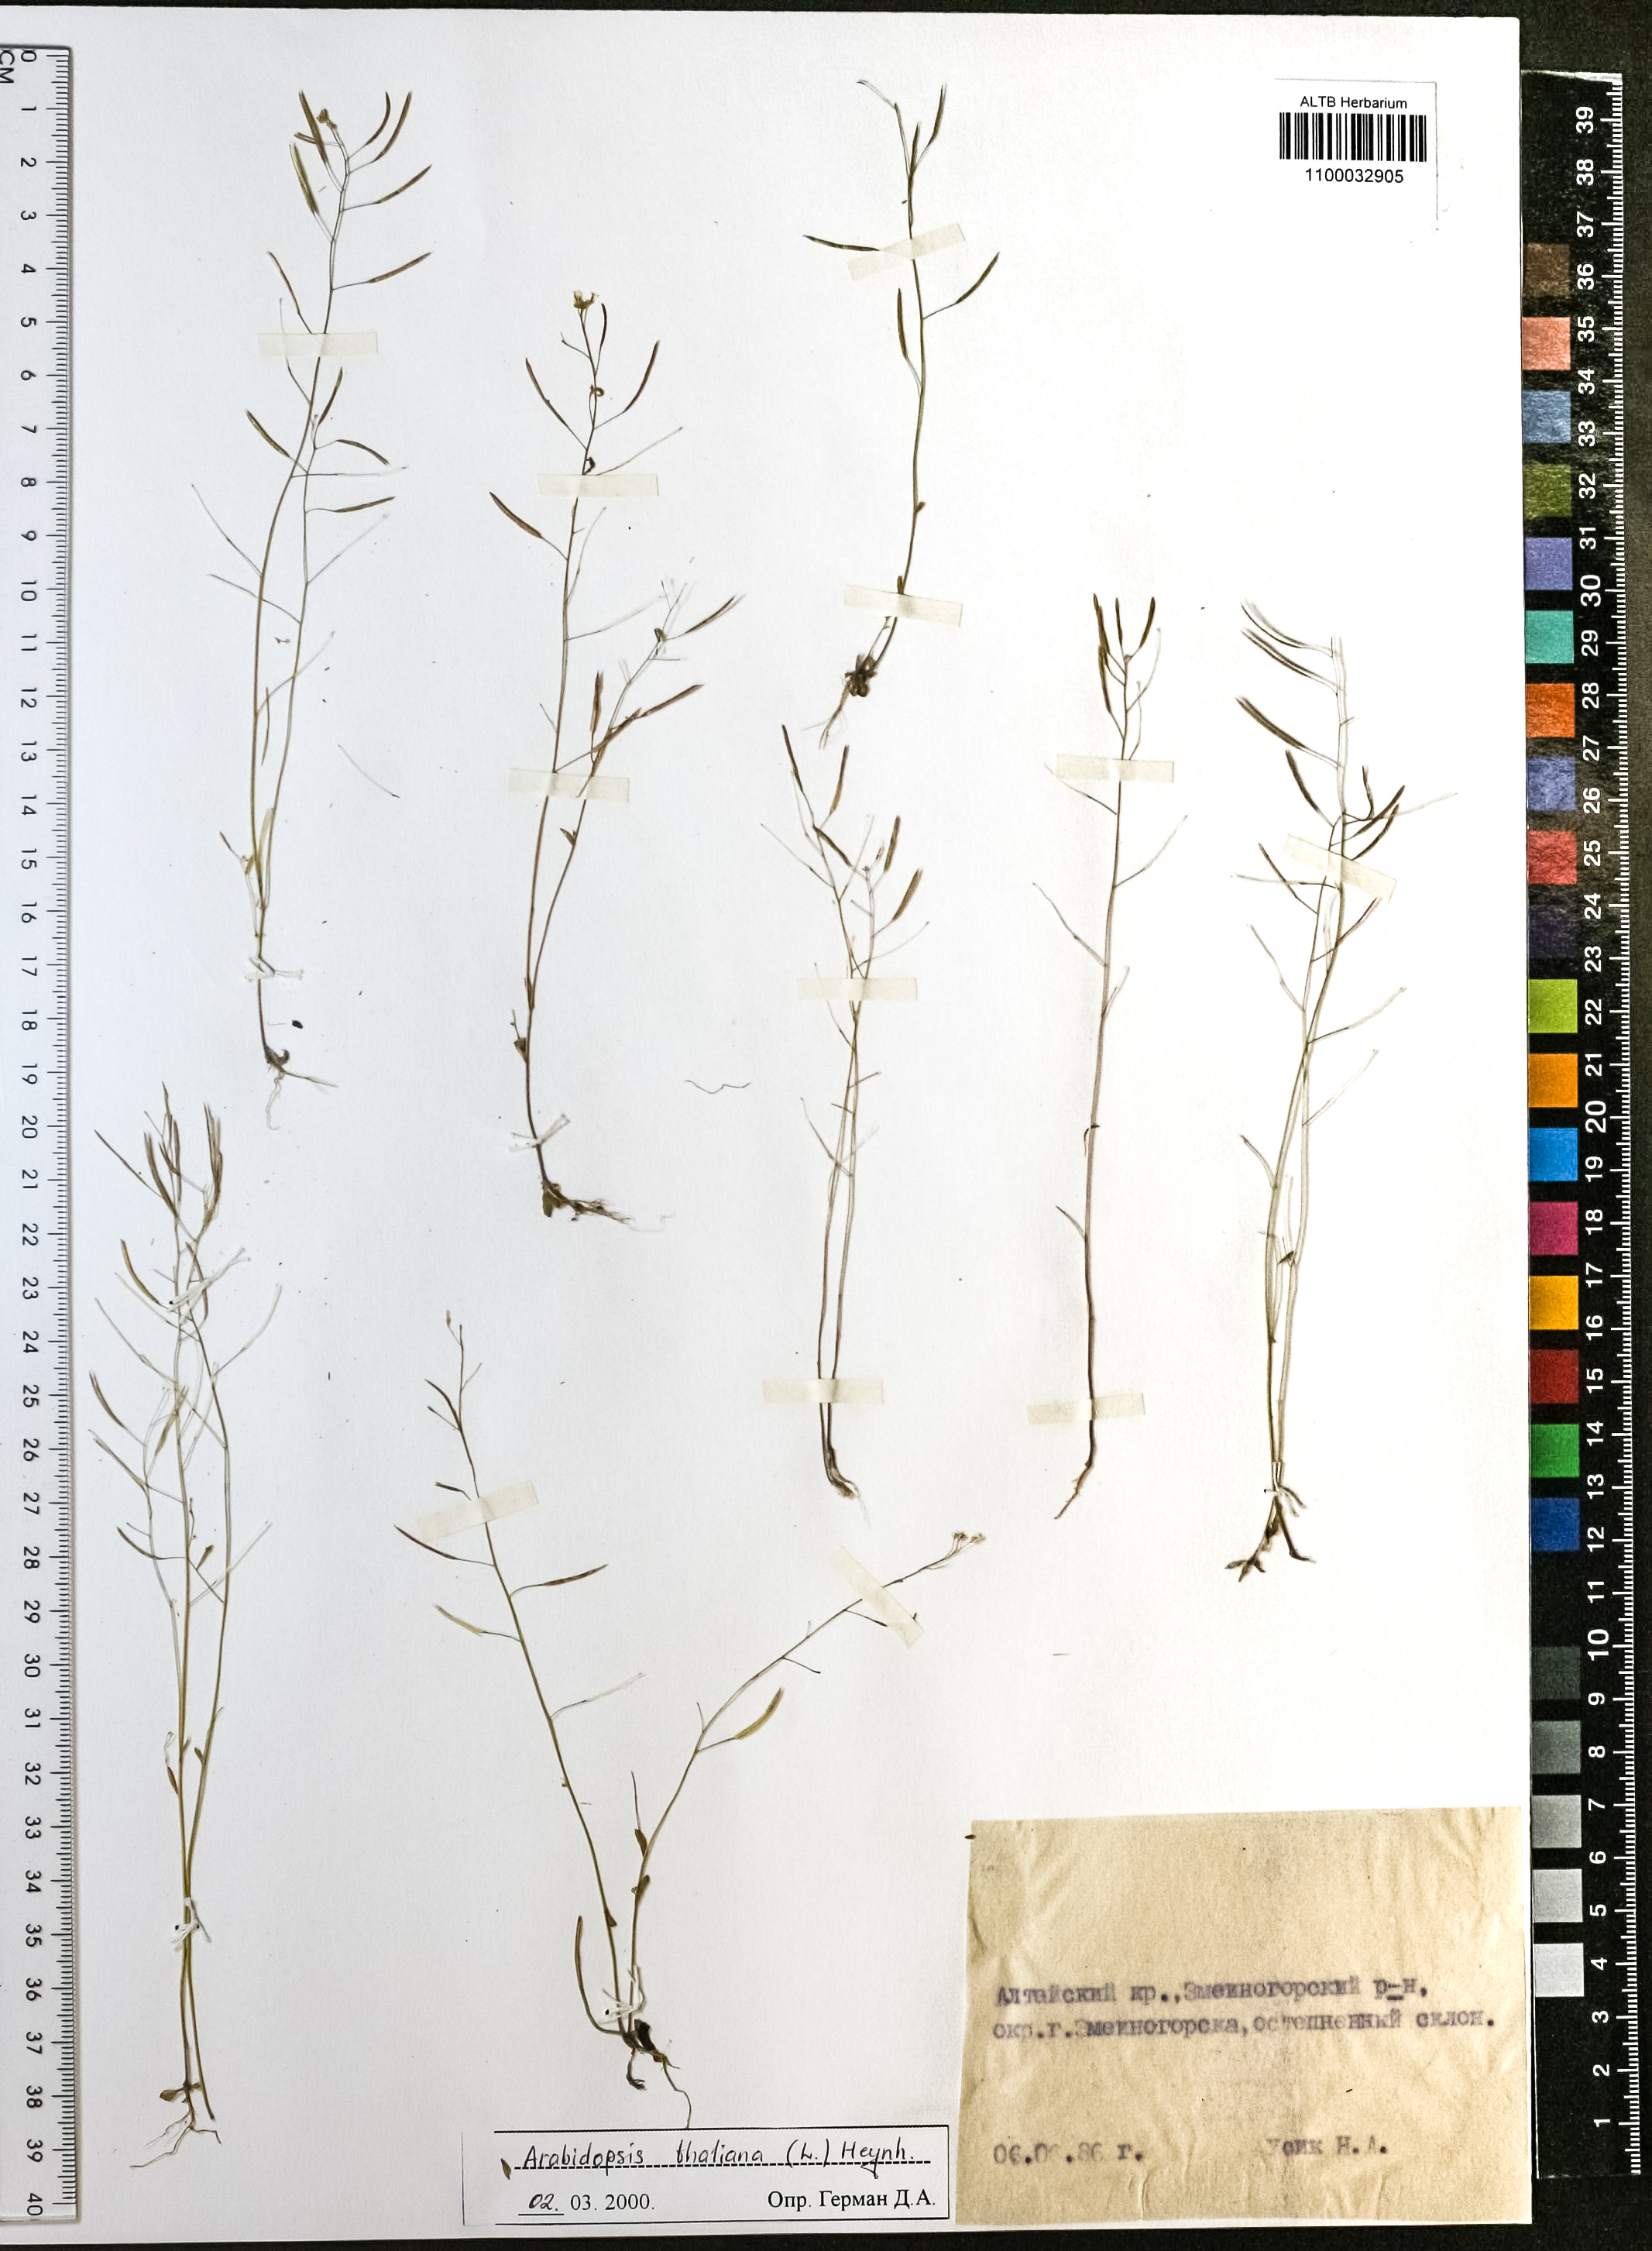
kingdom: Plantae
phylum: Tracheophyta
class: Magnoliopsida
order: Brassicales
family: Brassicaceae
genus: Arabidopsis
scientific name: Arabidopsis thaliana
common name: Thale cress
